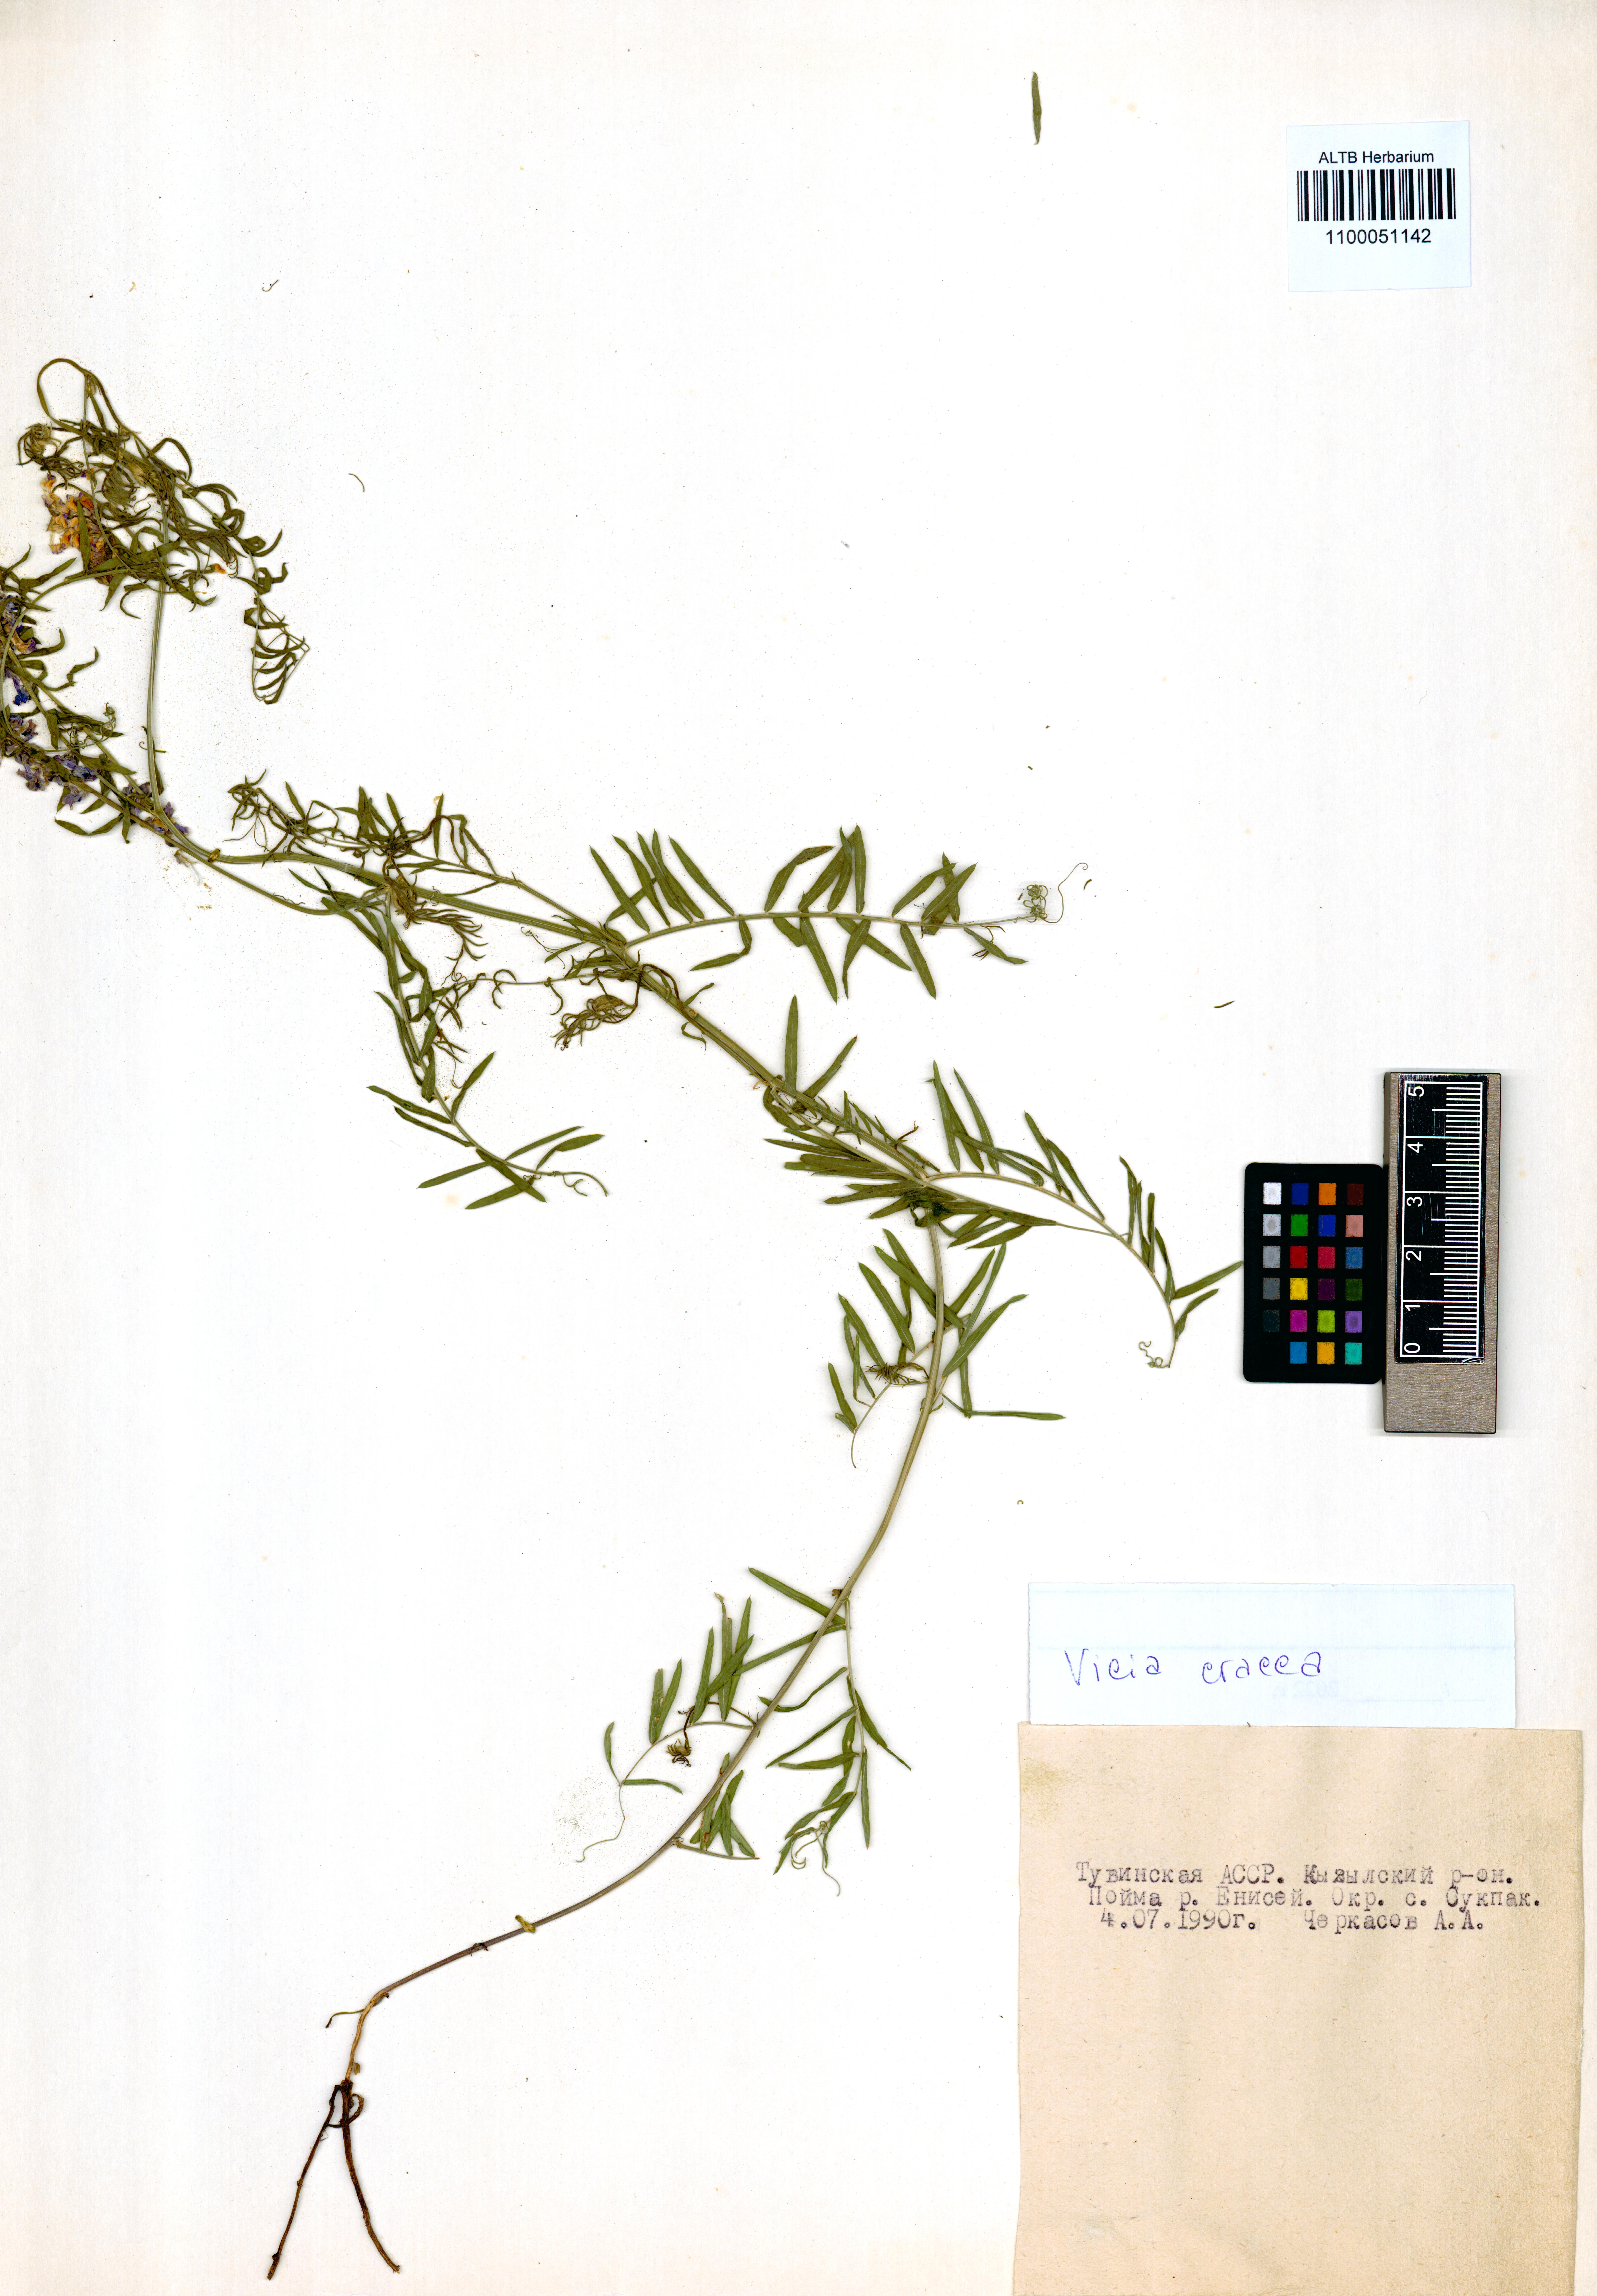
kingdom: Plantae
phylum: Tracheophyta
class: Magnoliopsida
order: Fabales
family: Fabaceae
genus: Vicia
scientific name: Vicia cracca
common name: Bird vetch
